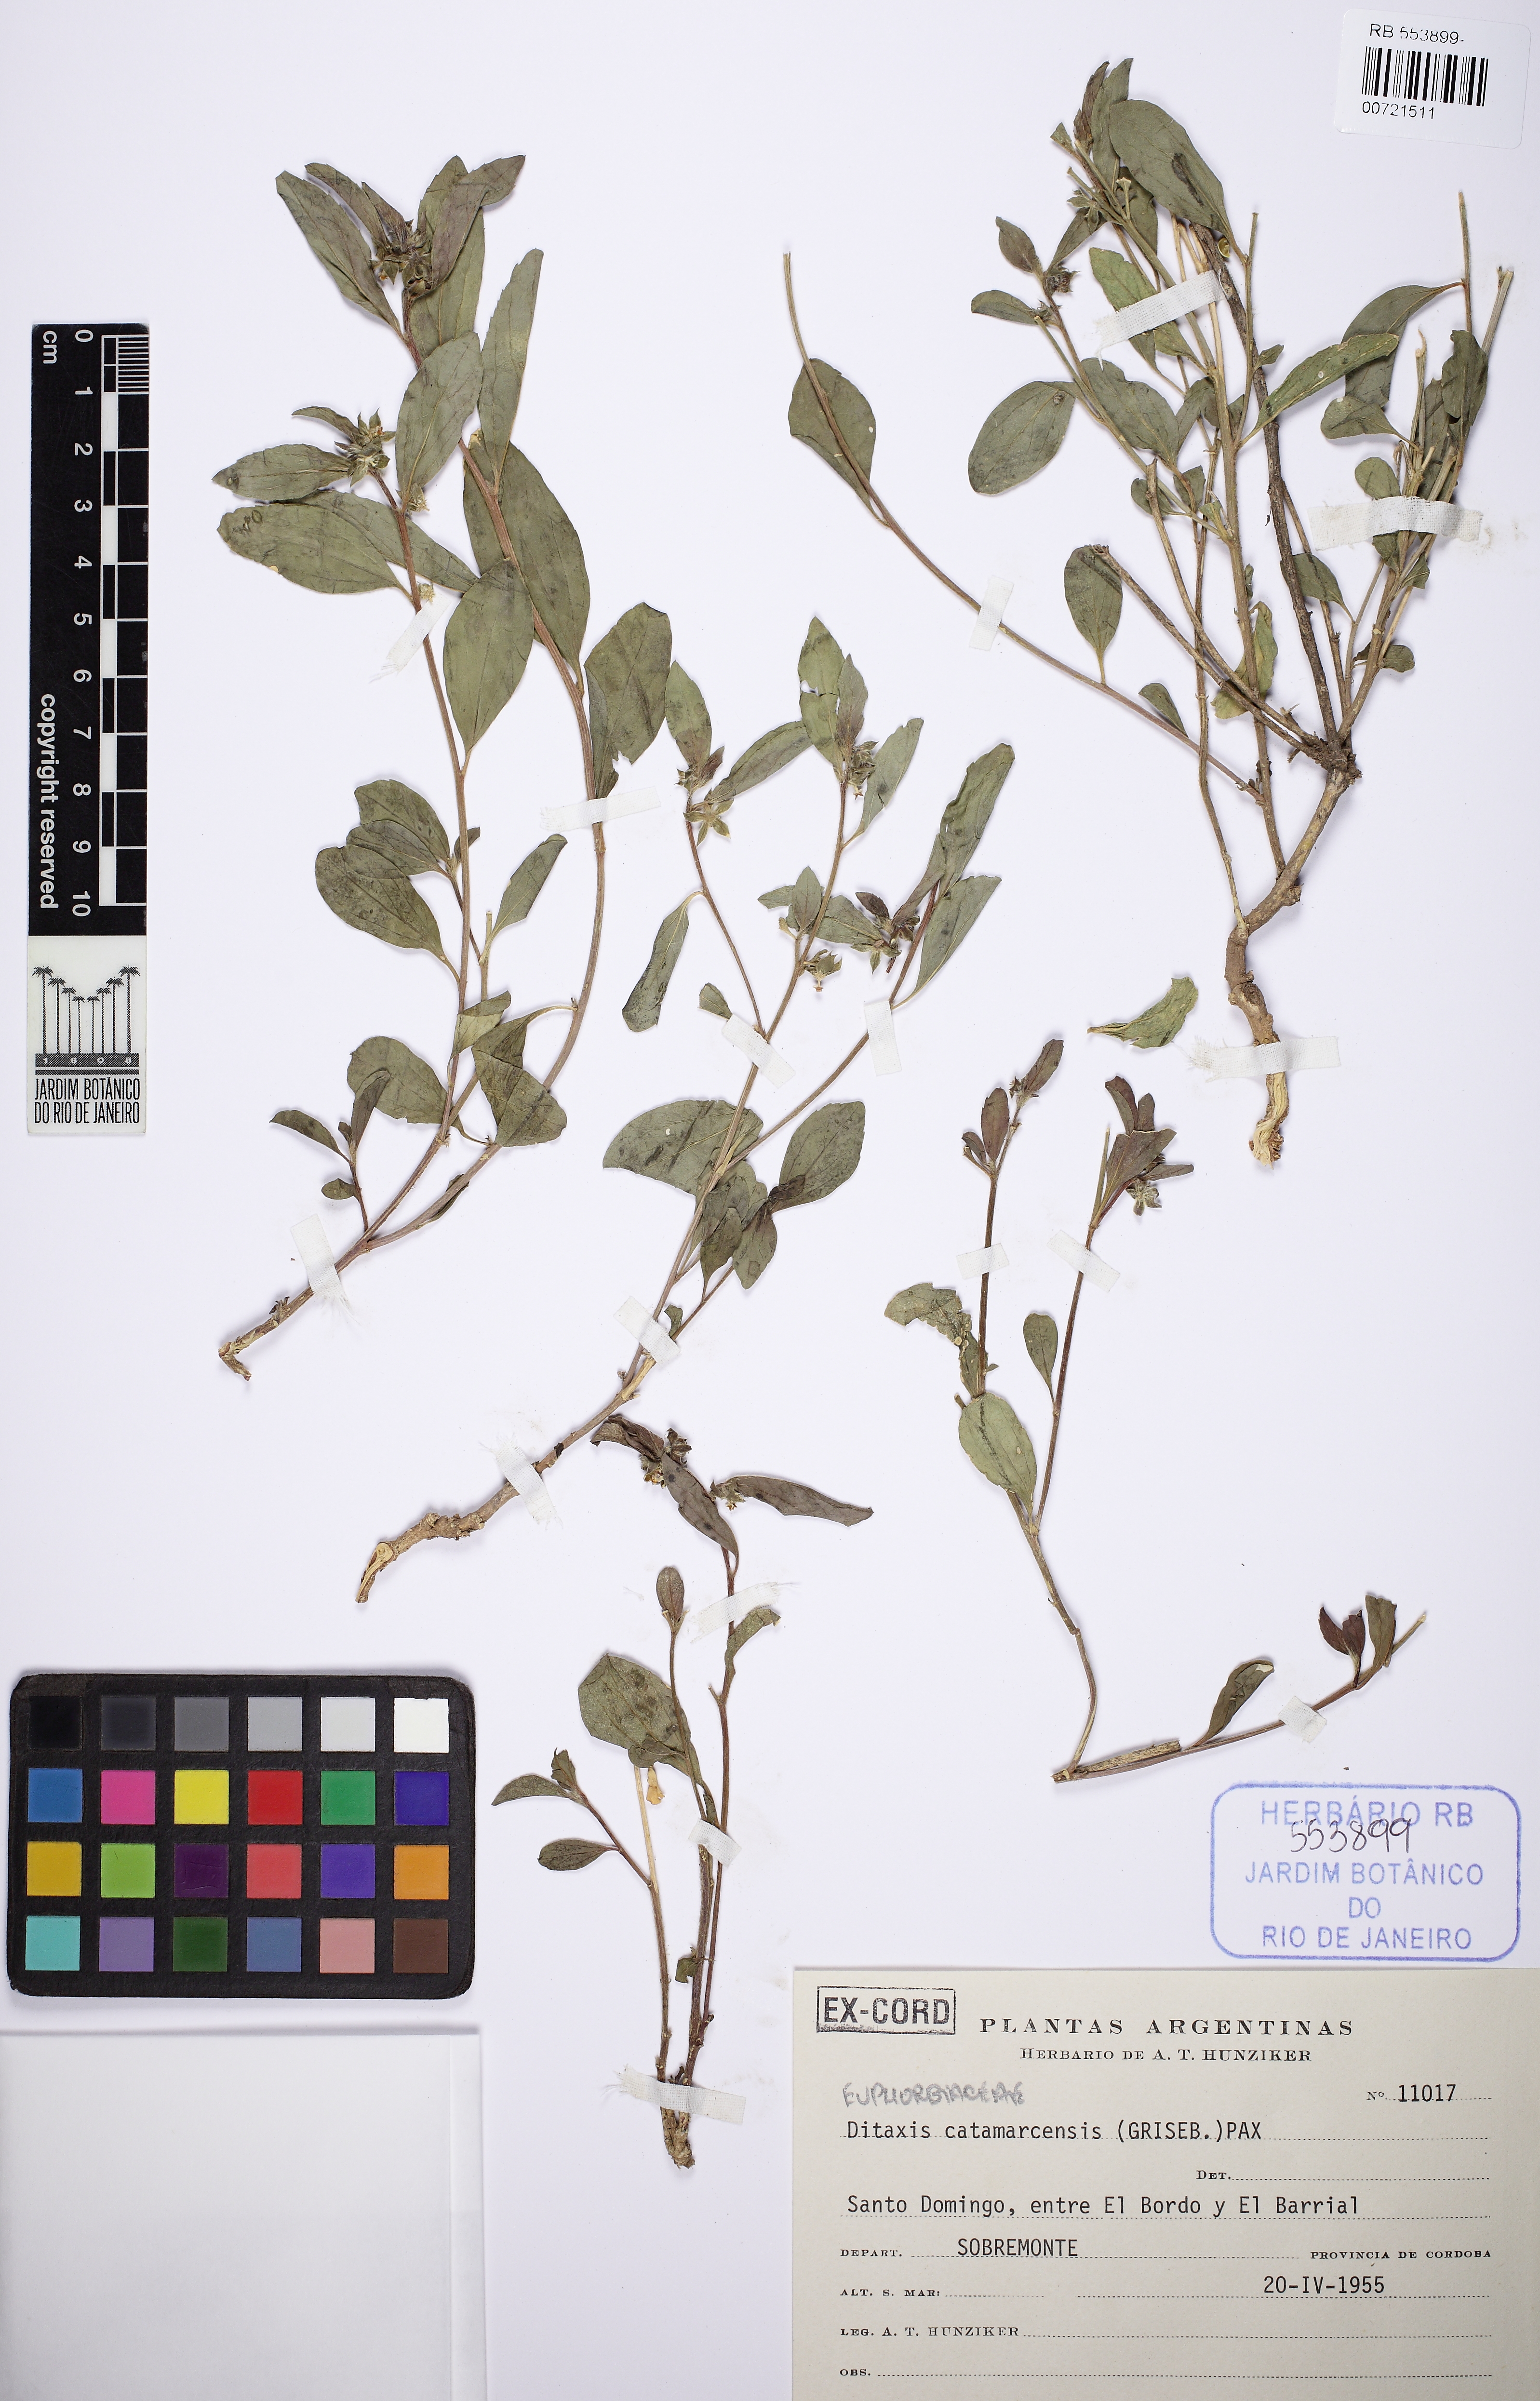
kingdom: Plantae
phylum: Tracheophyta
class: Magnoliopsida
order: Malpighiales
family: Euphorbiaceae
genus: Ditaxis
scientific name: Ditaxis catamarcensis
